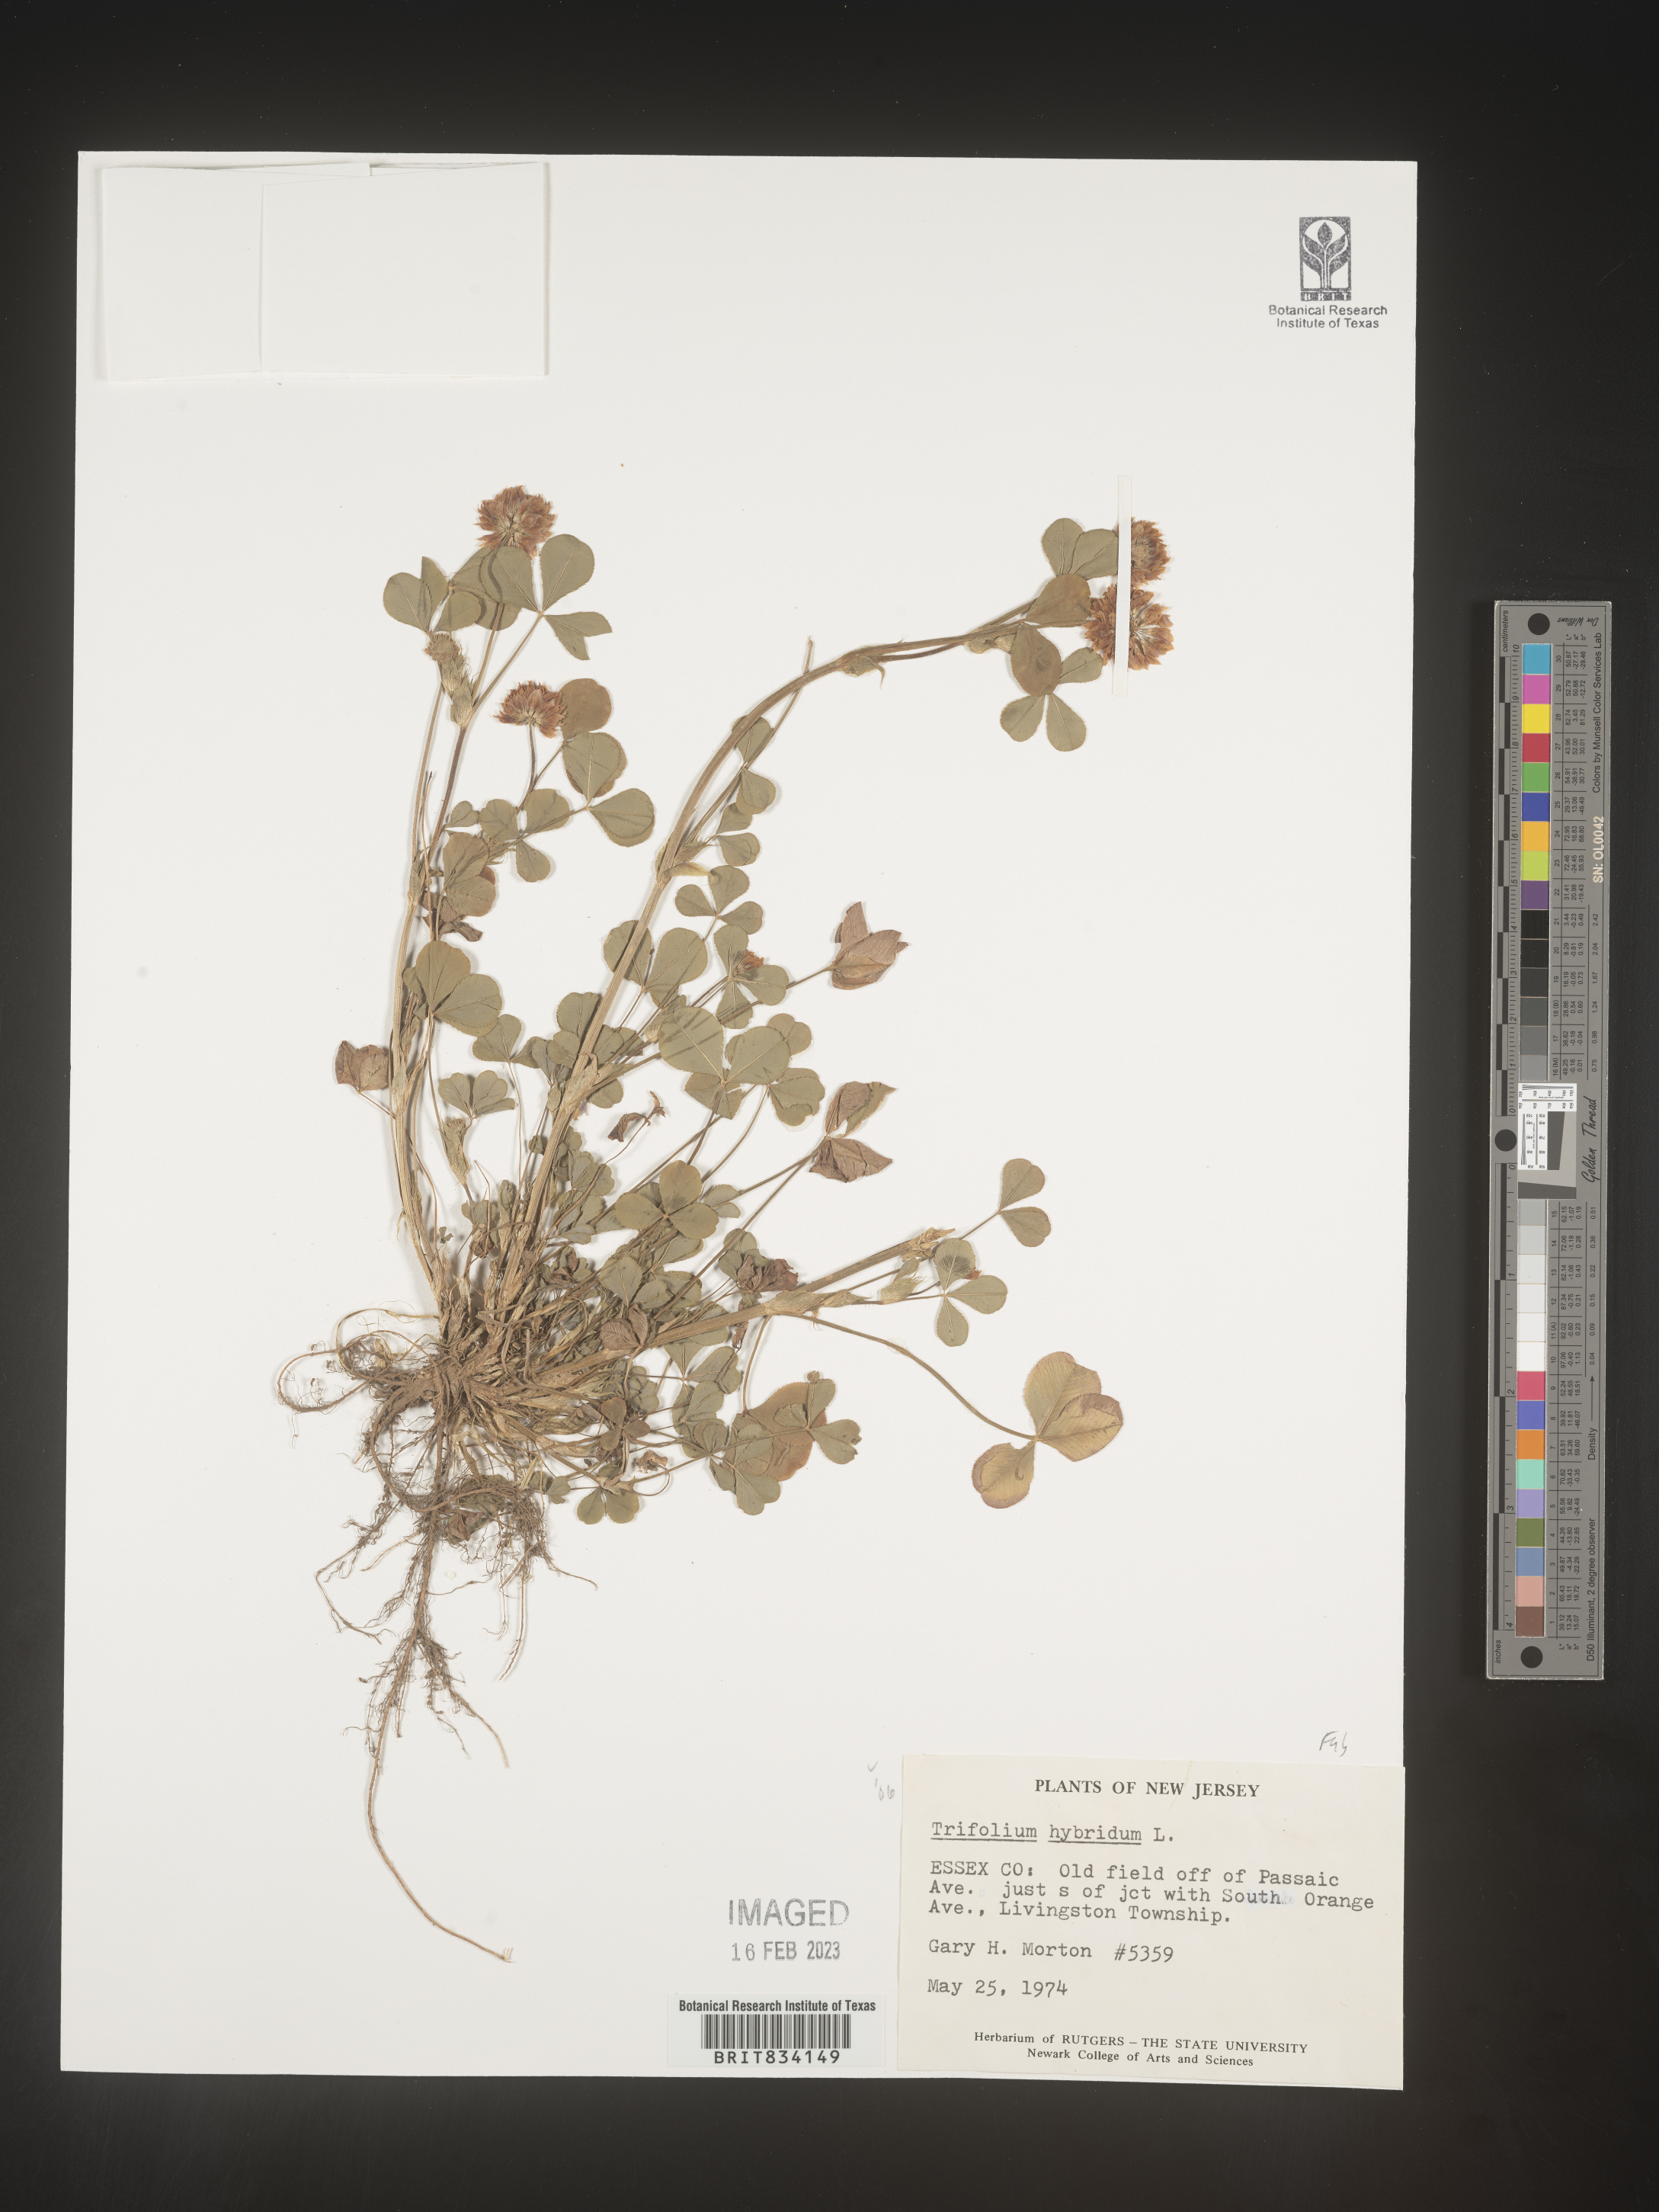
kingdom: Plantae
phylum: Tracheophyta
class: Magnoliopsida
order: Fabales
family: Fabaceae
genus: Trifolium
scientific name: Trifolium hybridum
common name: Alsike clover
